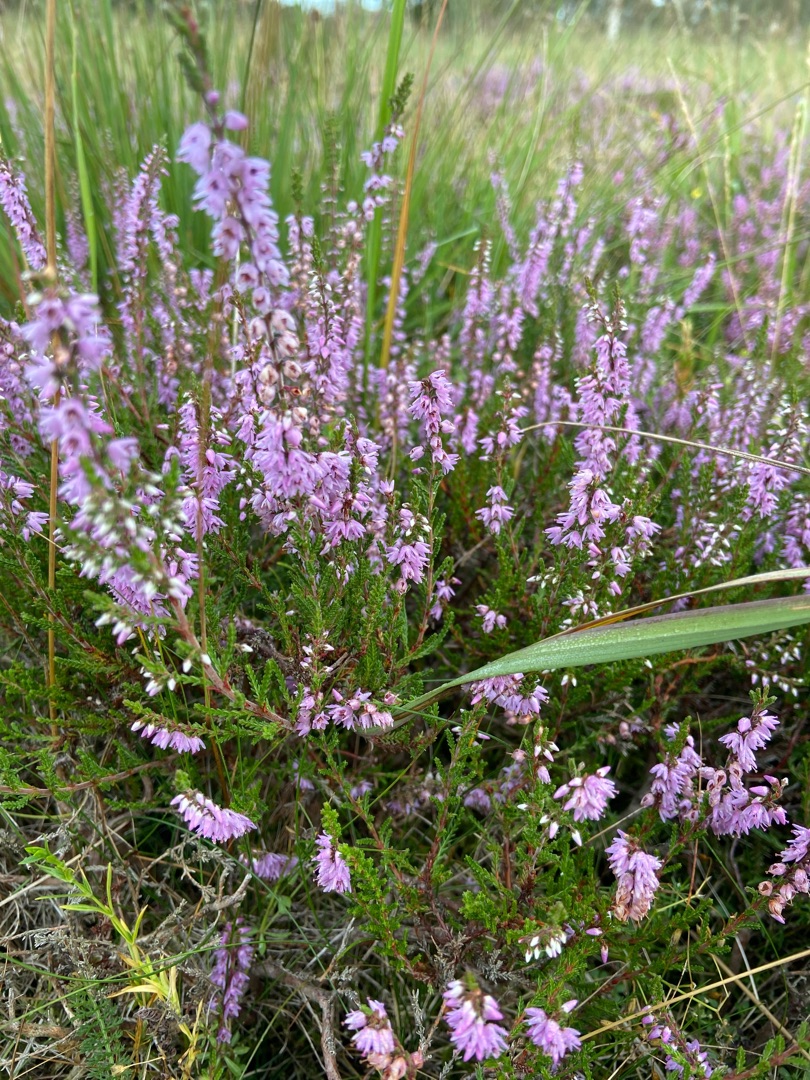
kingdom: Plantae
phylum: Tracheophyta
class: Magnoliopsida
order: Ericales
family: Ericaceae
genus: Calluna
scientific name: Calluna vulgaris
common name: Hedelyng
